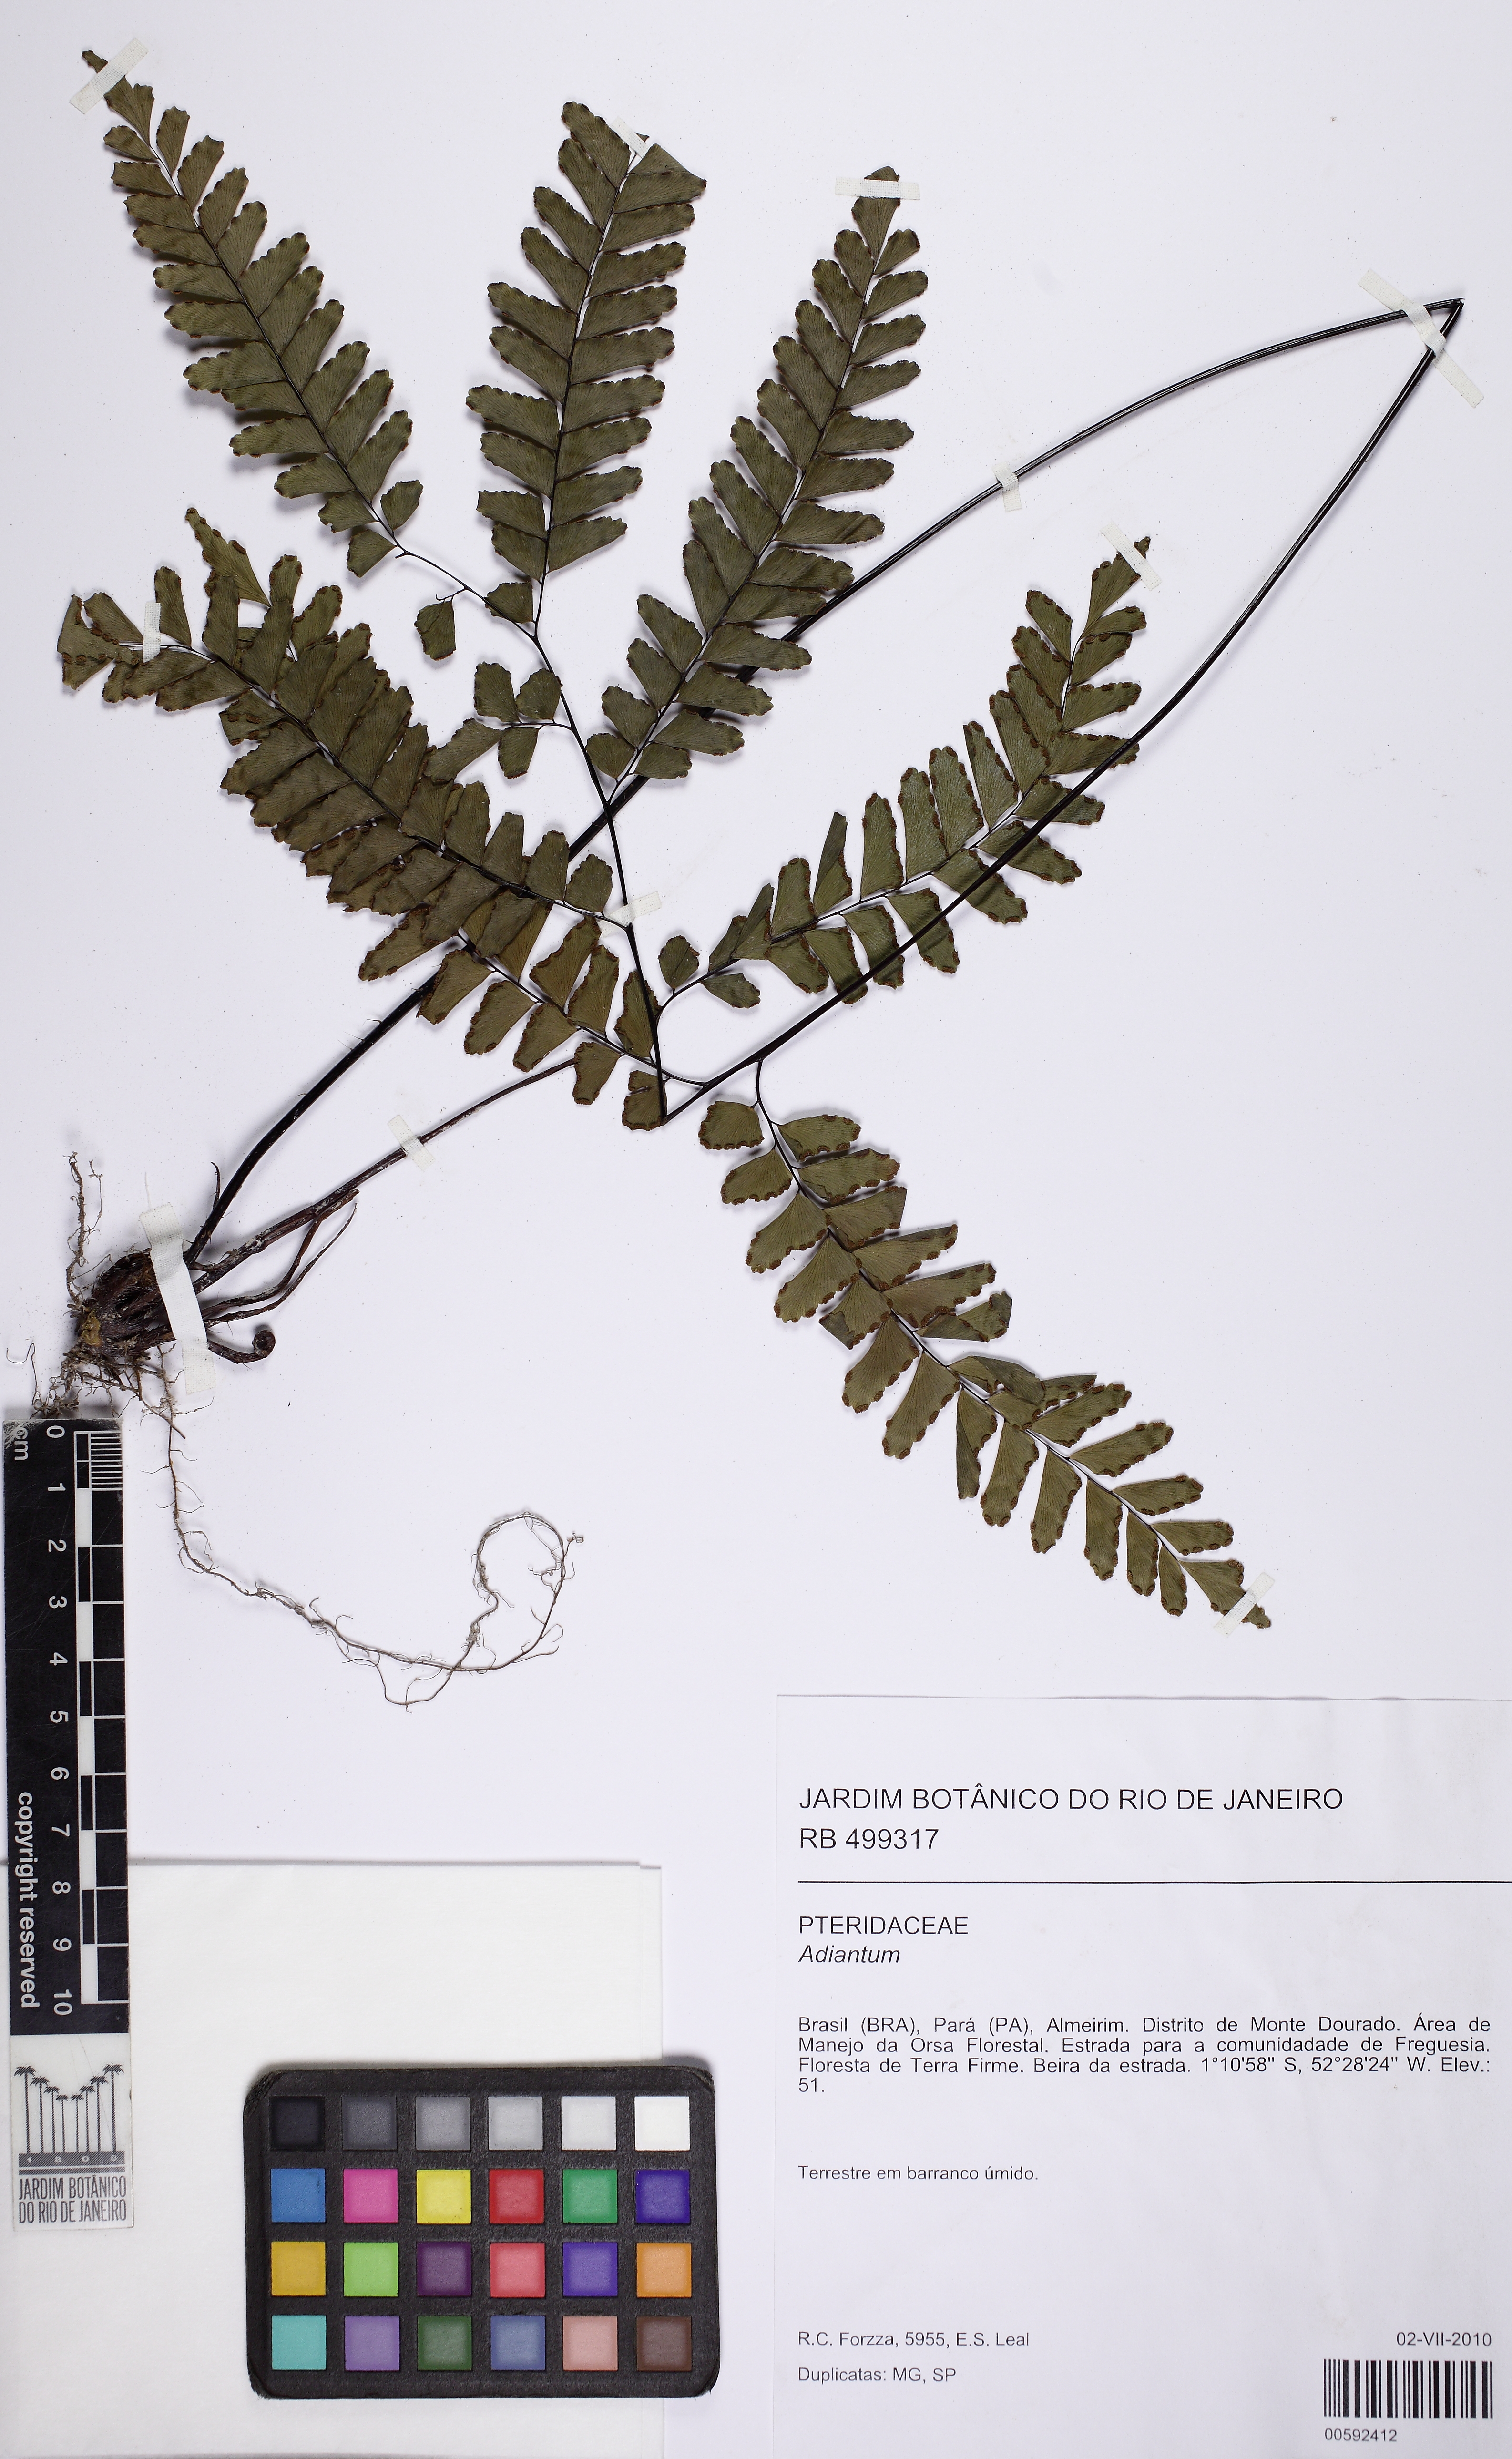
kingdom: Plantae
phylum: Tracheophyta
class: Polypodiopsida
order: Polypodiales
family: Pteridaceae
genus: Adiantum
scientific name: Adiantum glaucescens
